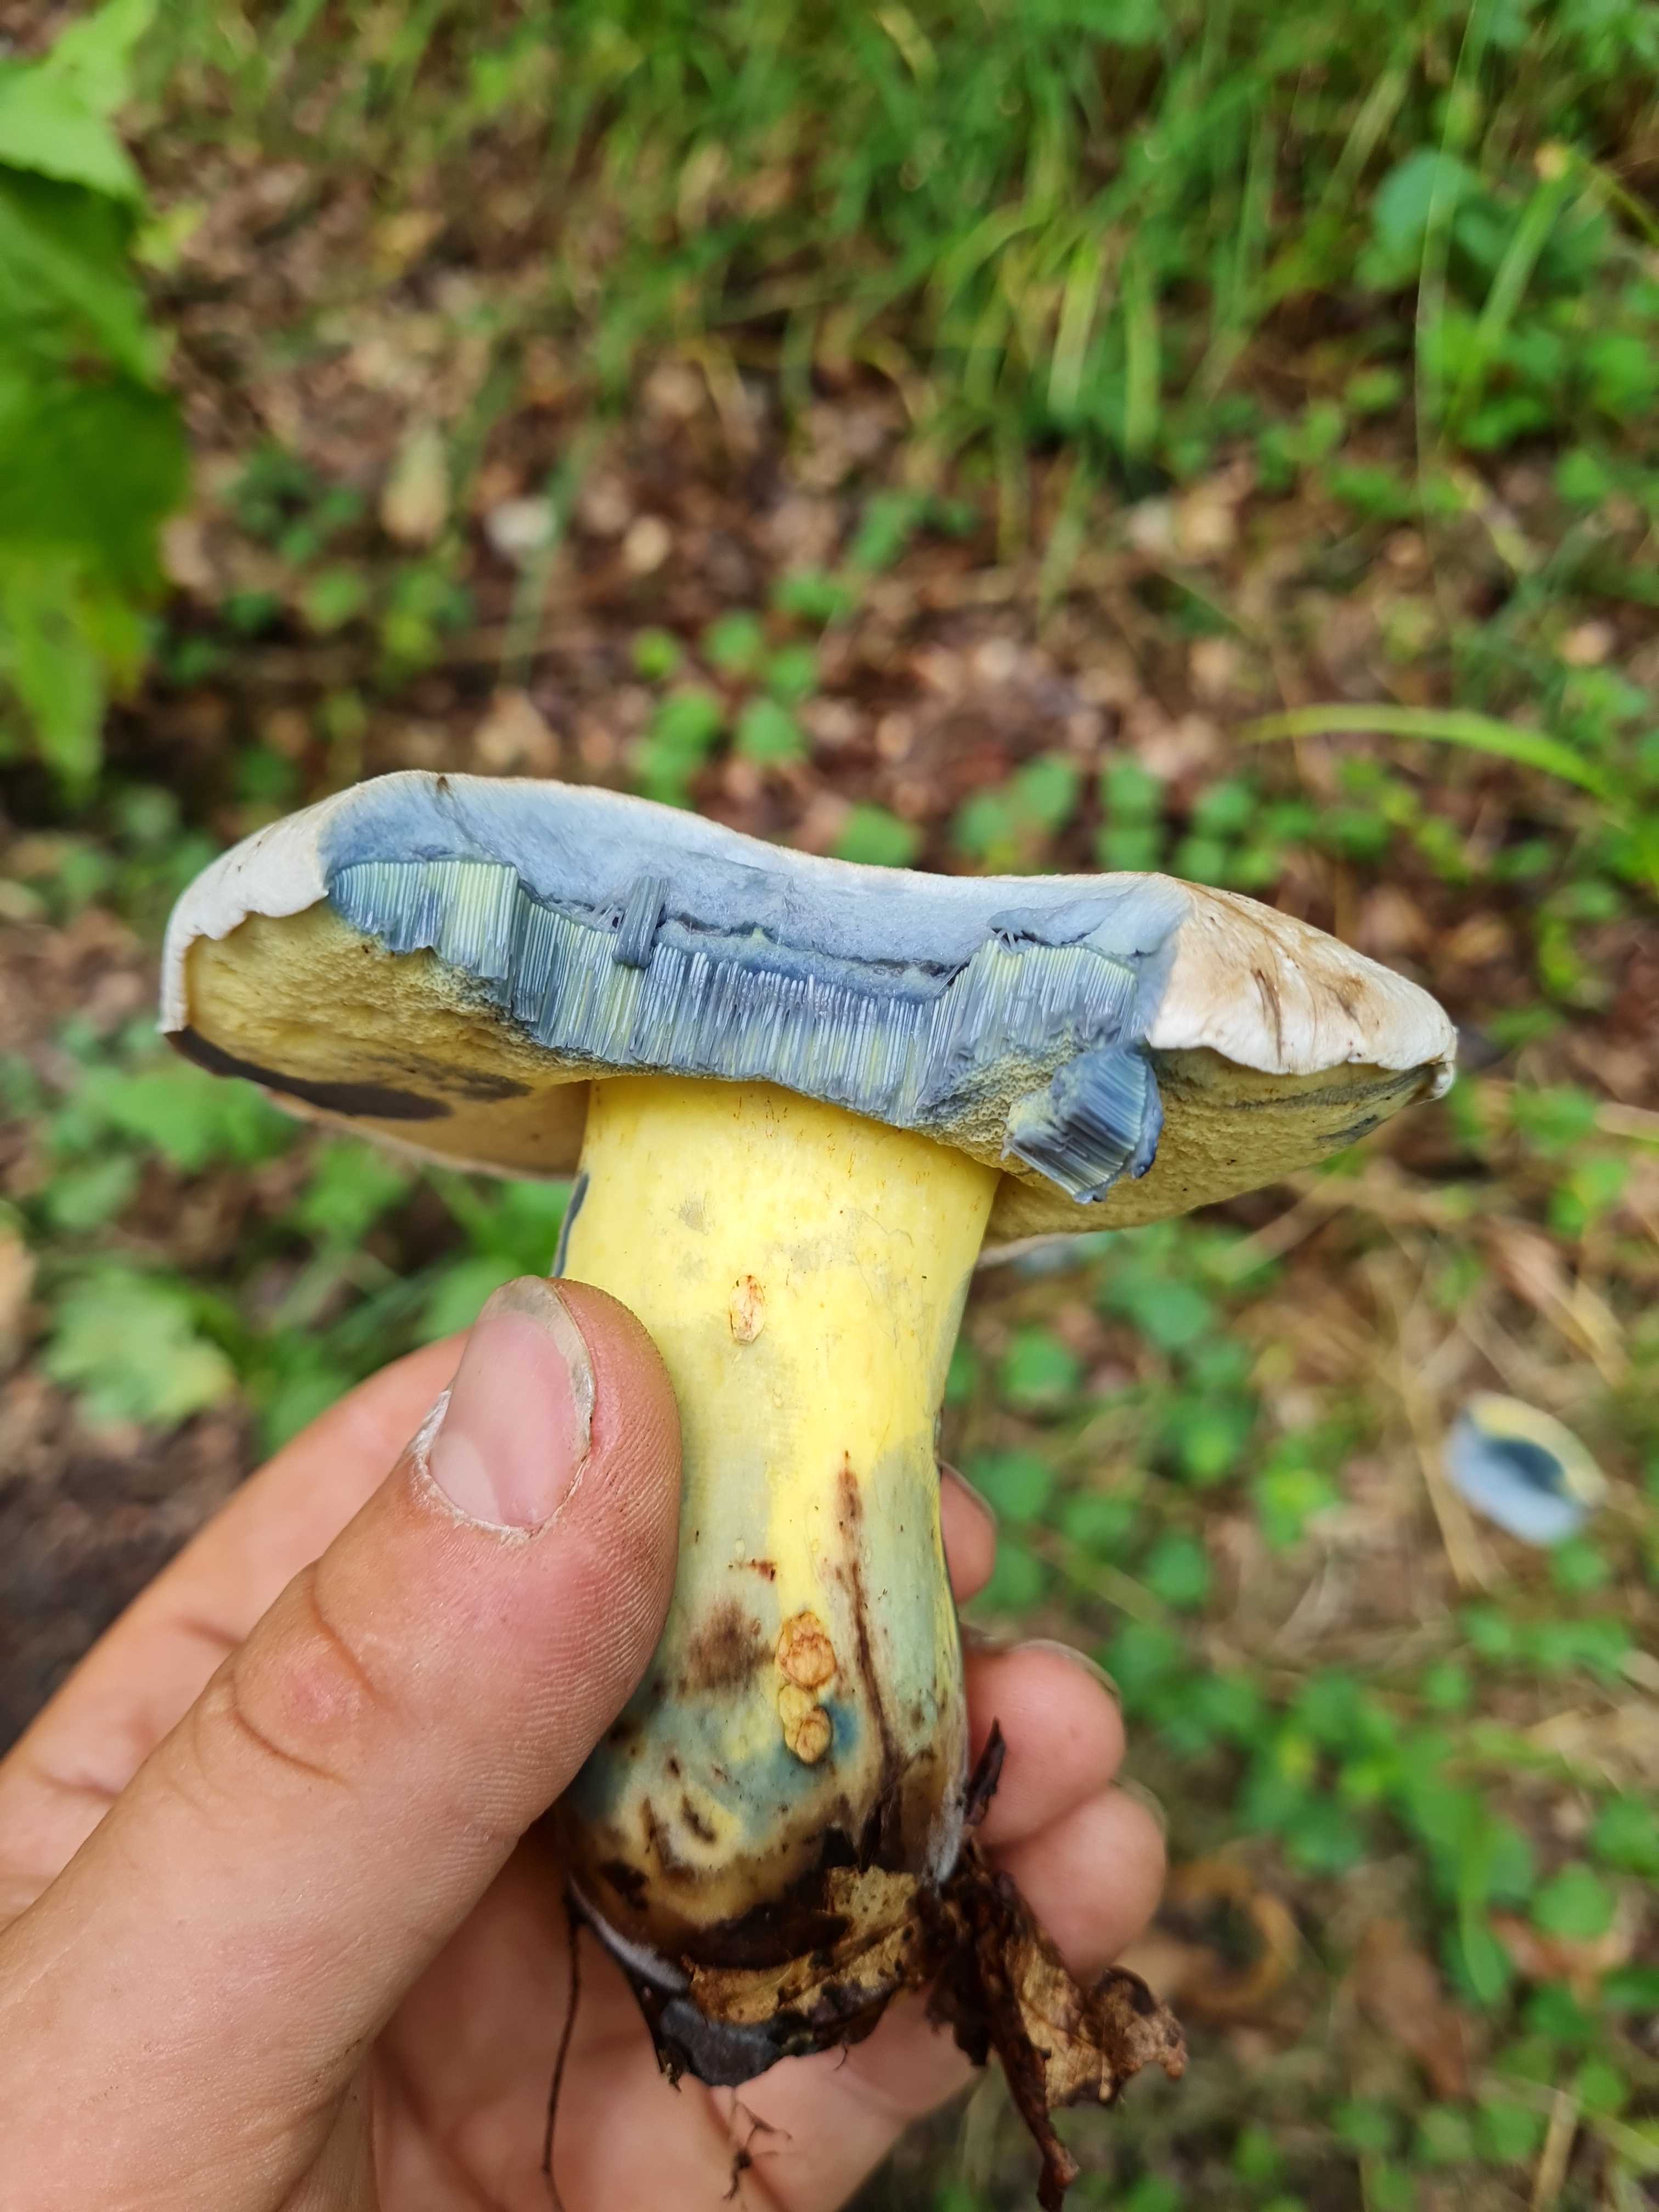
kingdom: Fungi
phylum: Basidiomycota
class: Agaricomycetes
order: Boletales
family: Boletaceae
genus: Caloboletus
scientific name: Caloboletus radicans
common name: rod-rørhat
